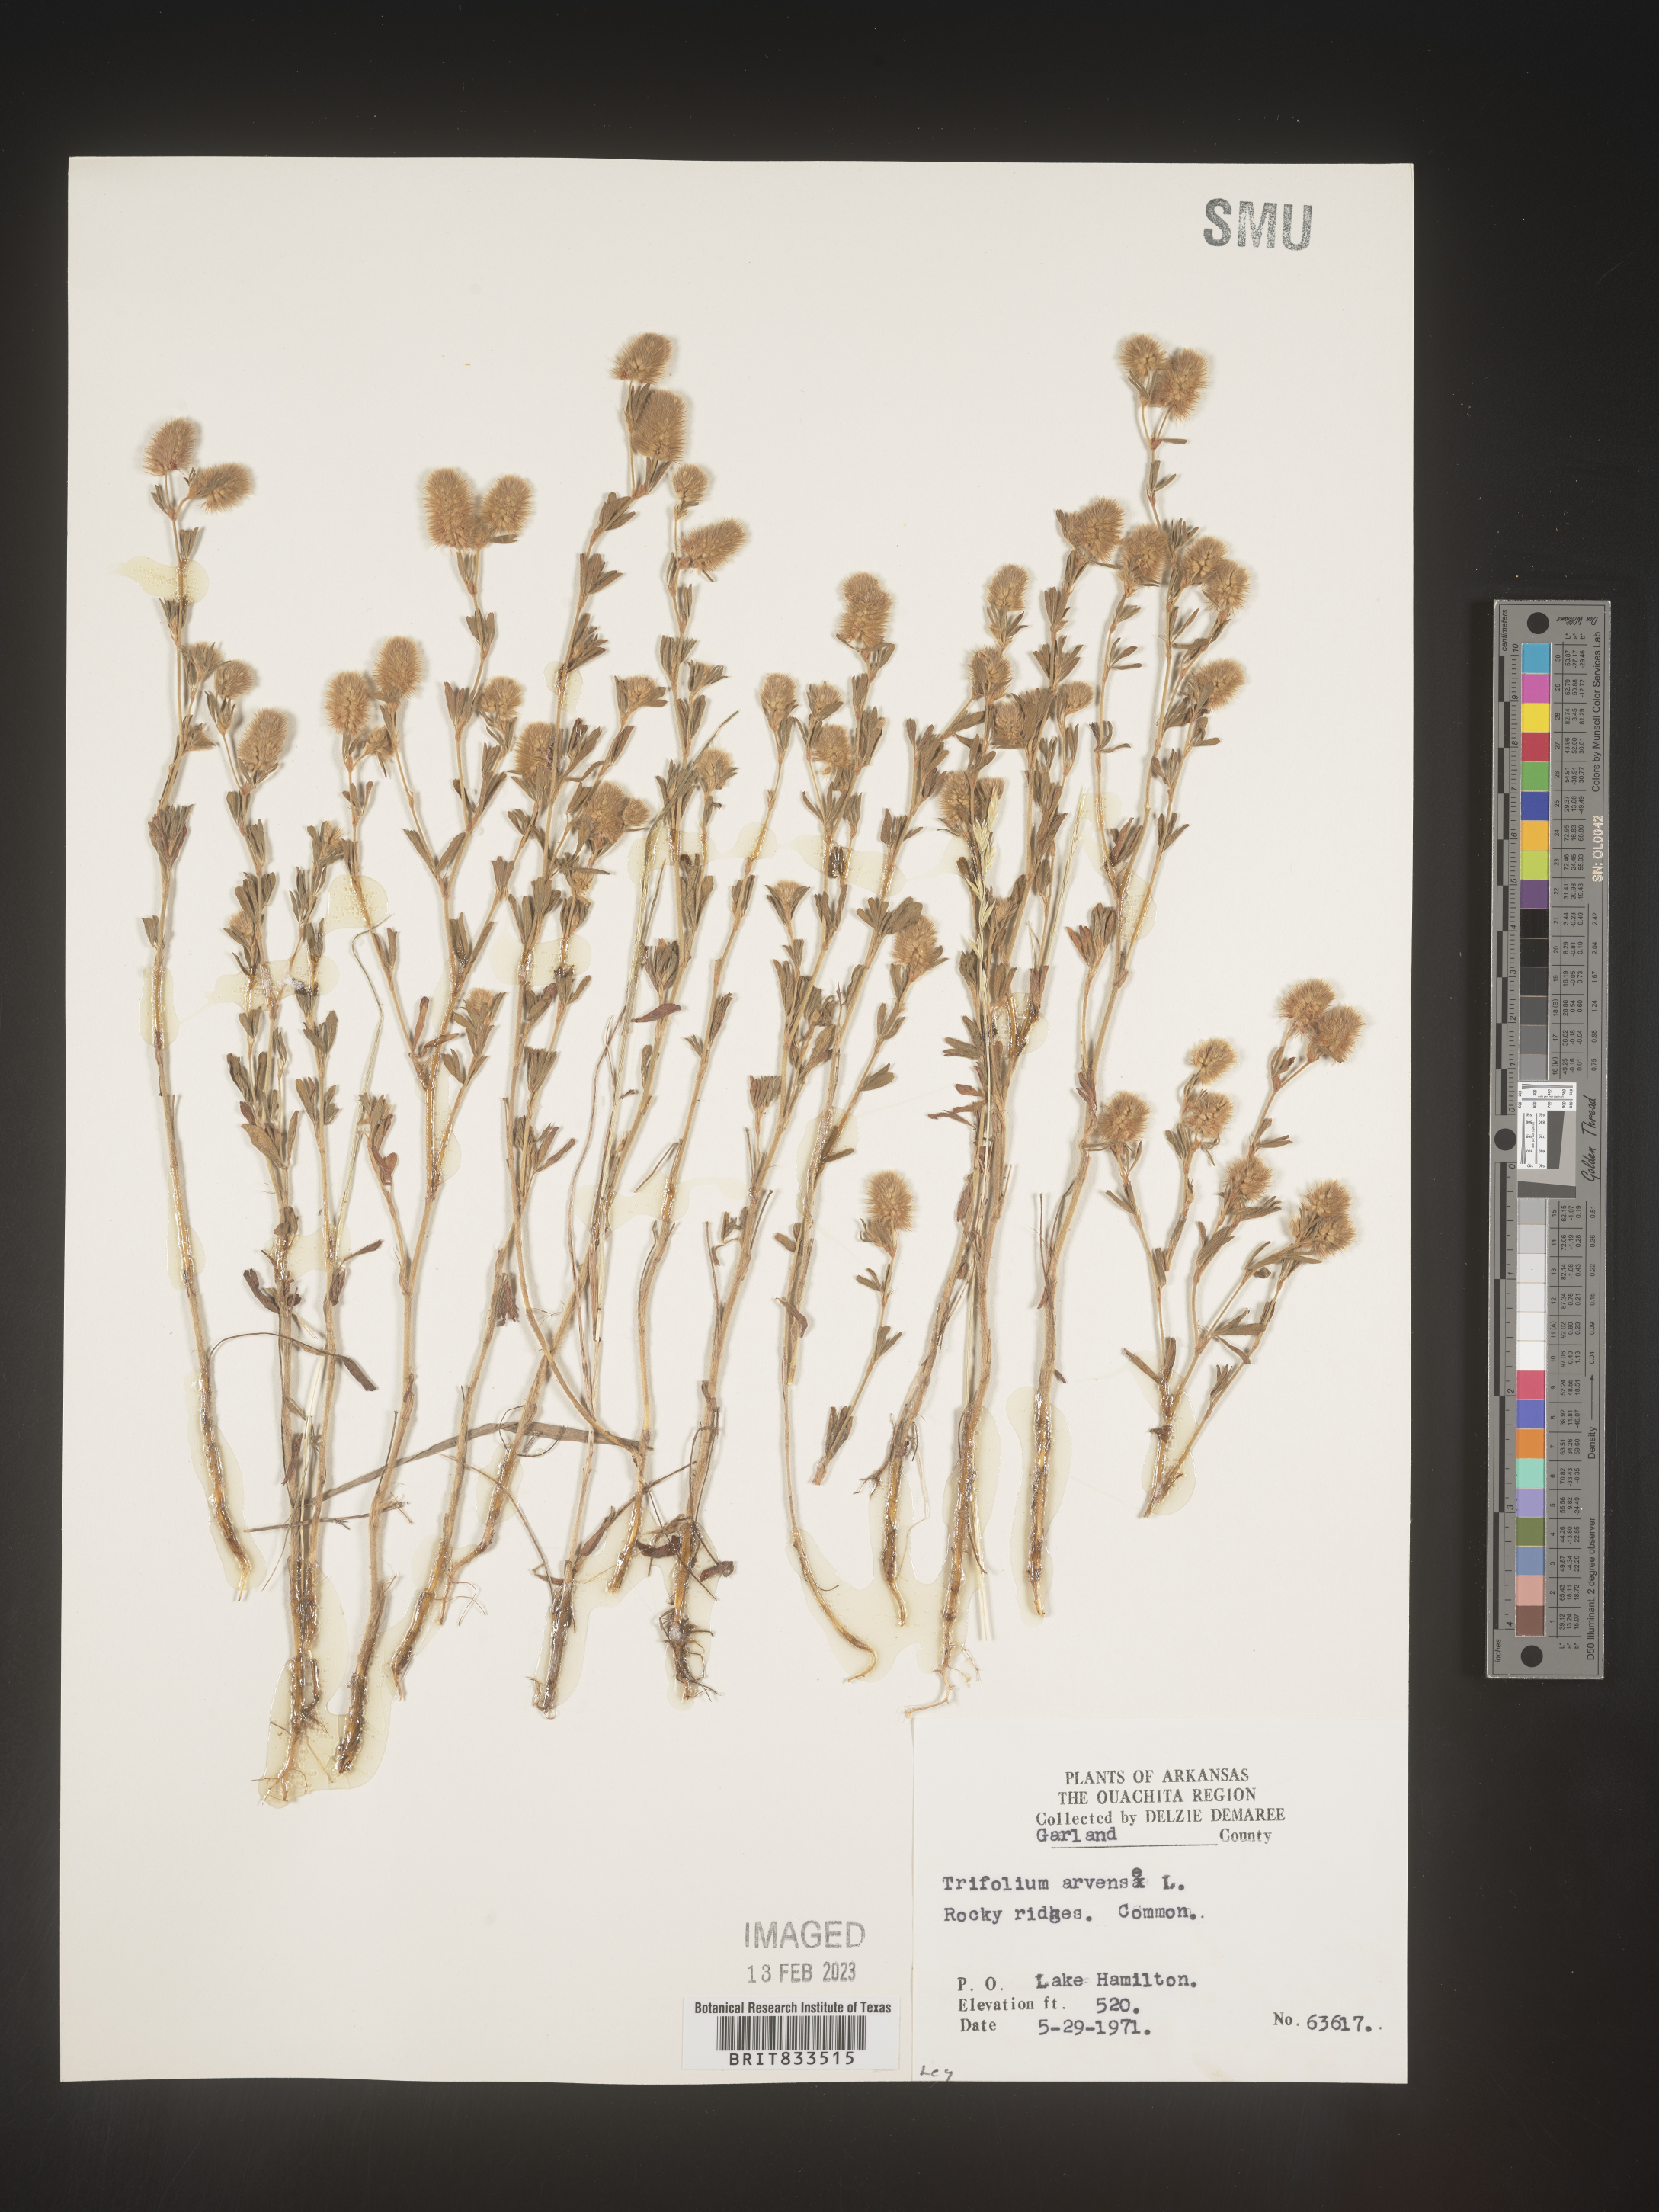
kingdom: Plantae
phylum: Tracheophyta
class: Magnoliopsida
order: Fabales
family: Fabaceae
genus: Trifolium
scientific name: Trifolium arvense
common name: Hare's-foot clover
